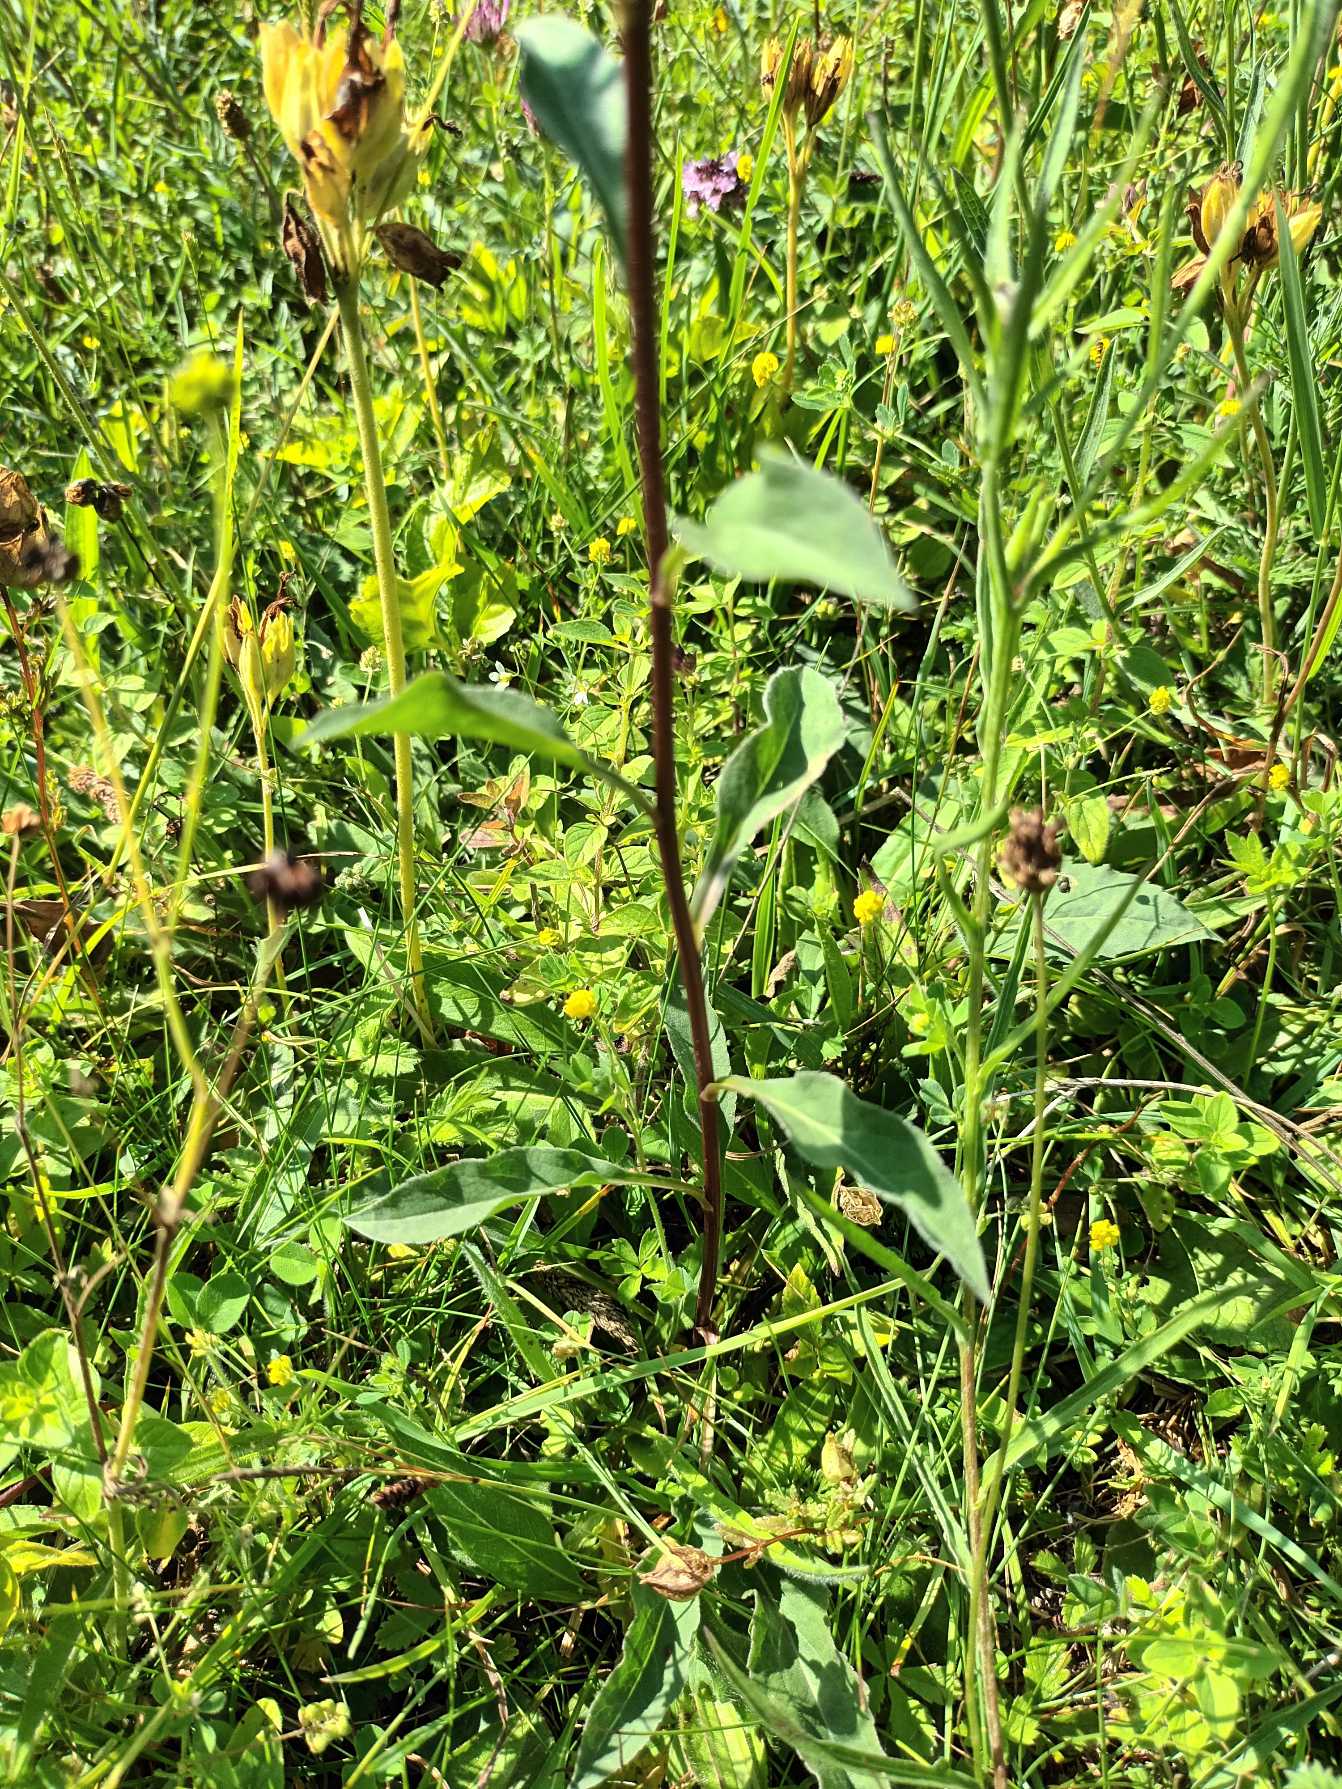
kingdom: Plantae
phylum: Tracheophyta
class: Magnoliopsida
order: Asterales
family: Asteraceae
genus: Solidago
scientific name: Solidago virgaurea
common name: Almindelig gyldenris
